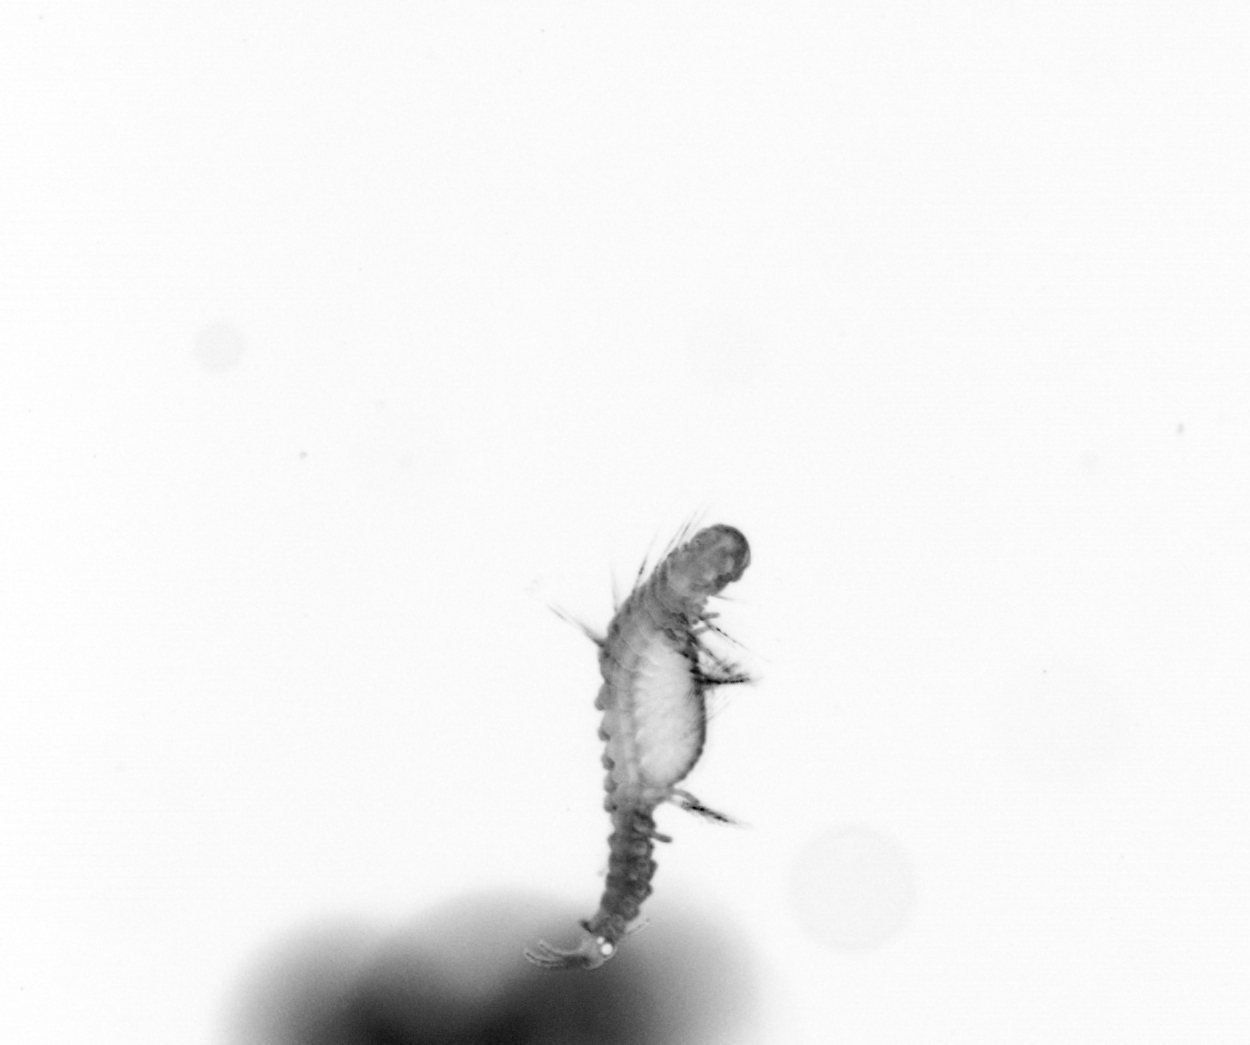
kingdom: Animalia
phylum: Annelida
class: Polychaeta
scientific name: Polychaeta
